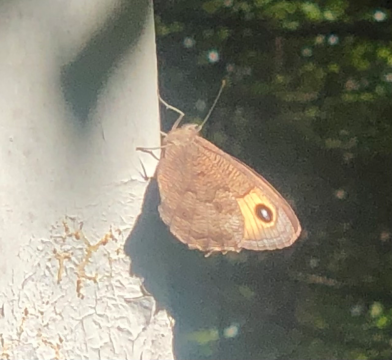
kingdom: Animalia
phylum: Arthropoda
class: Insecta
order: Lepidoptera
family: Nymphalidae
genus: Cercyonis
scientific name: Cercyonis pegala
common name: Common Wood-Nymph
